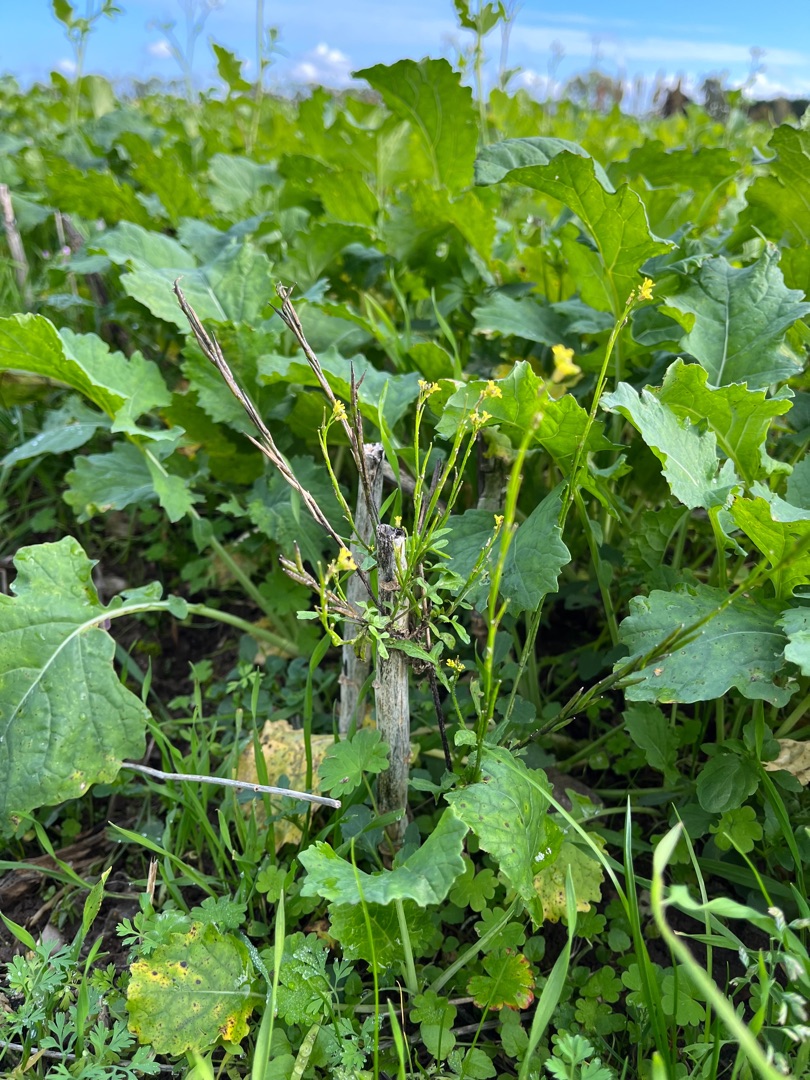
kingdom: Plantae
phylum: Tracheophyta
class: Magnoliopsida
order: Brassicales
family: Brassicaceae
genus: Sisymbrium
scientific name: Sisymbrium officinale
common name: Rank vejsennep
